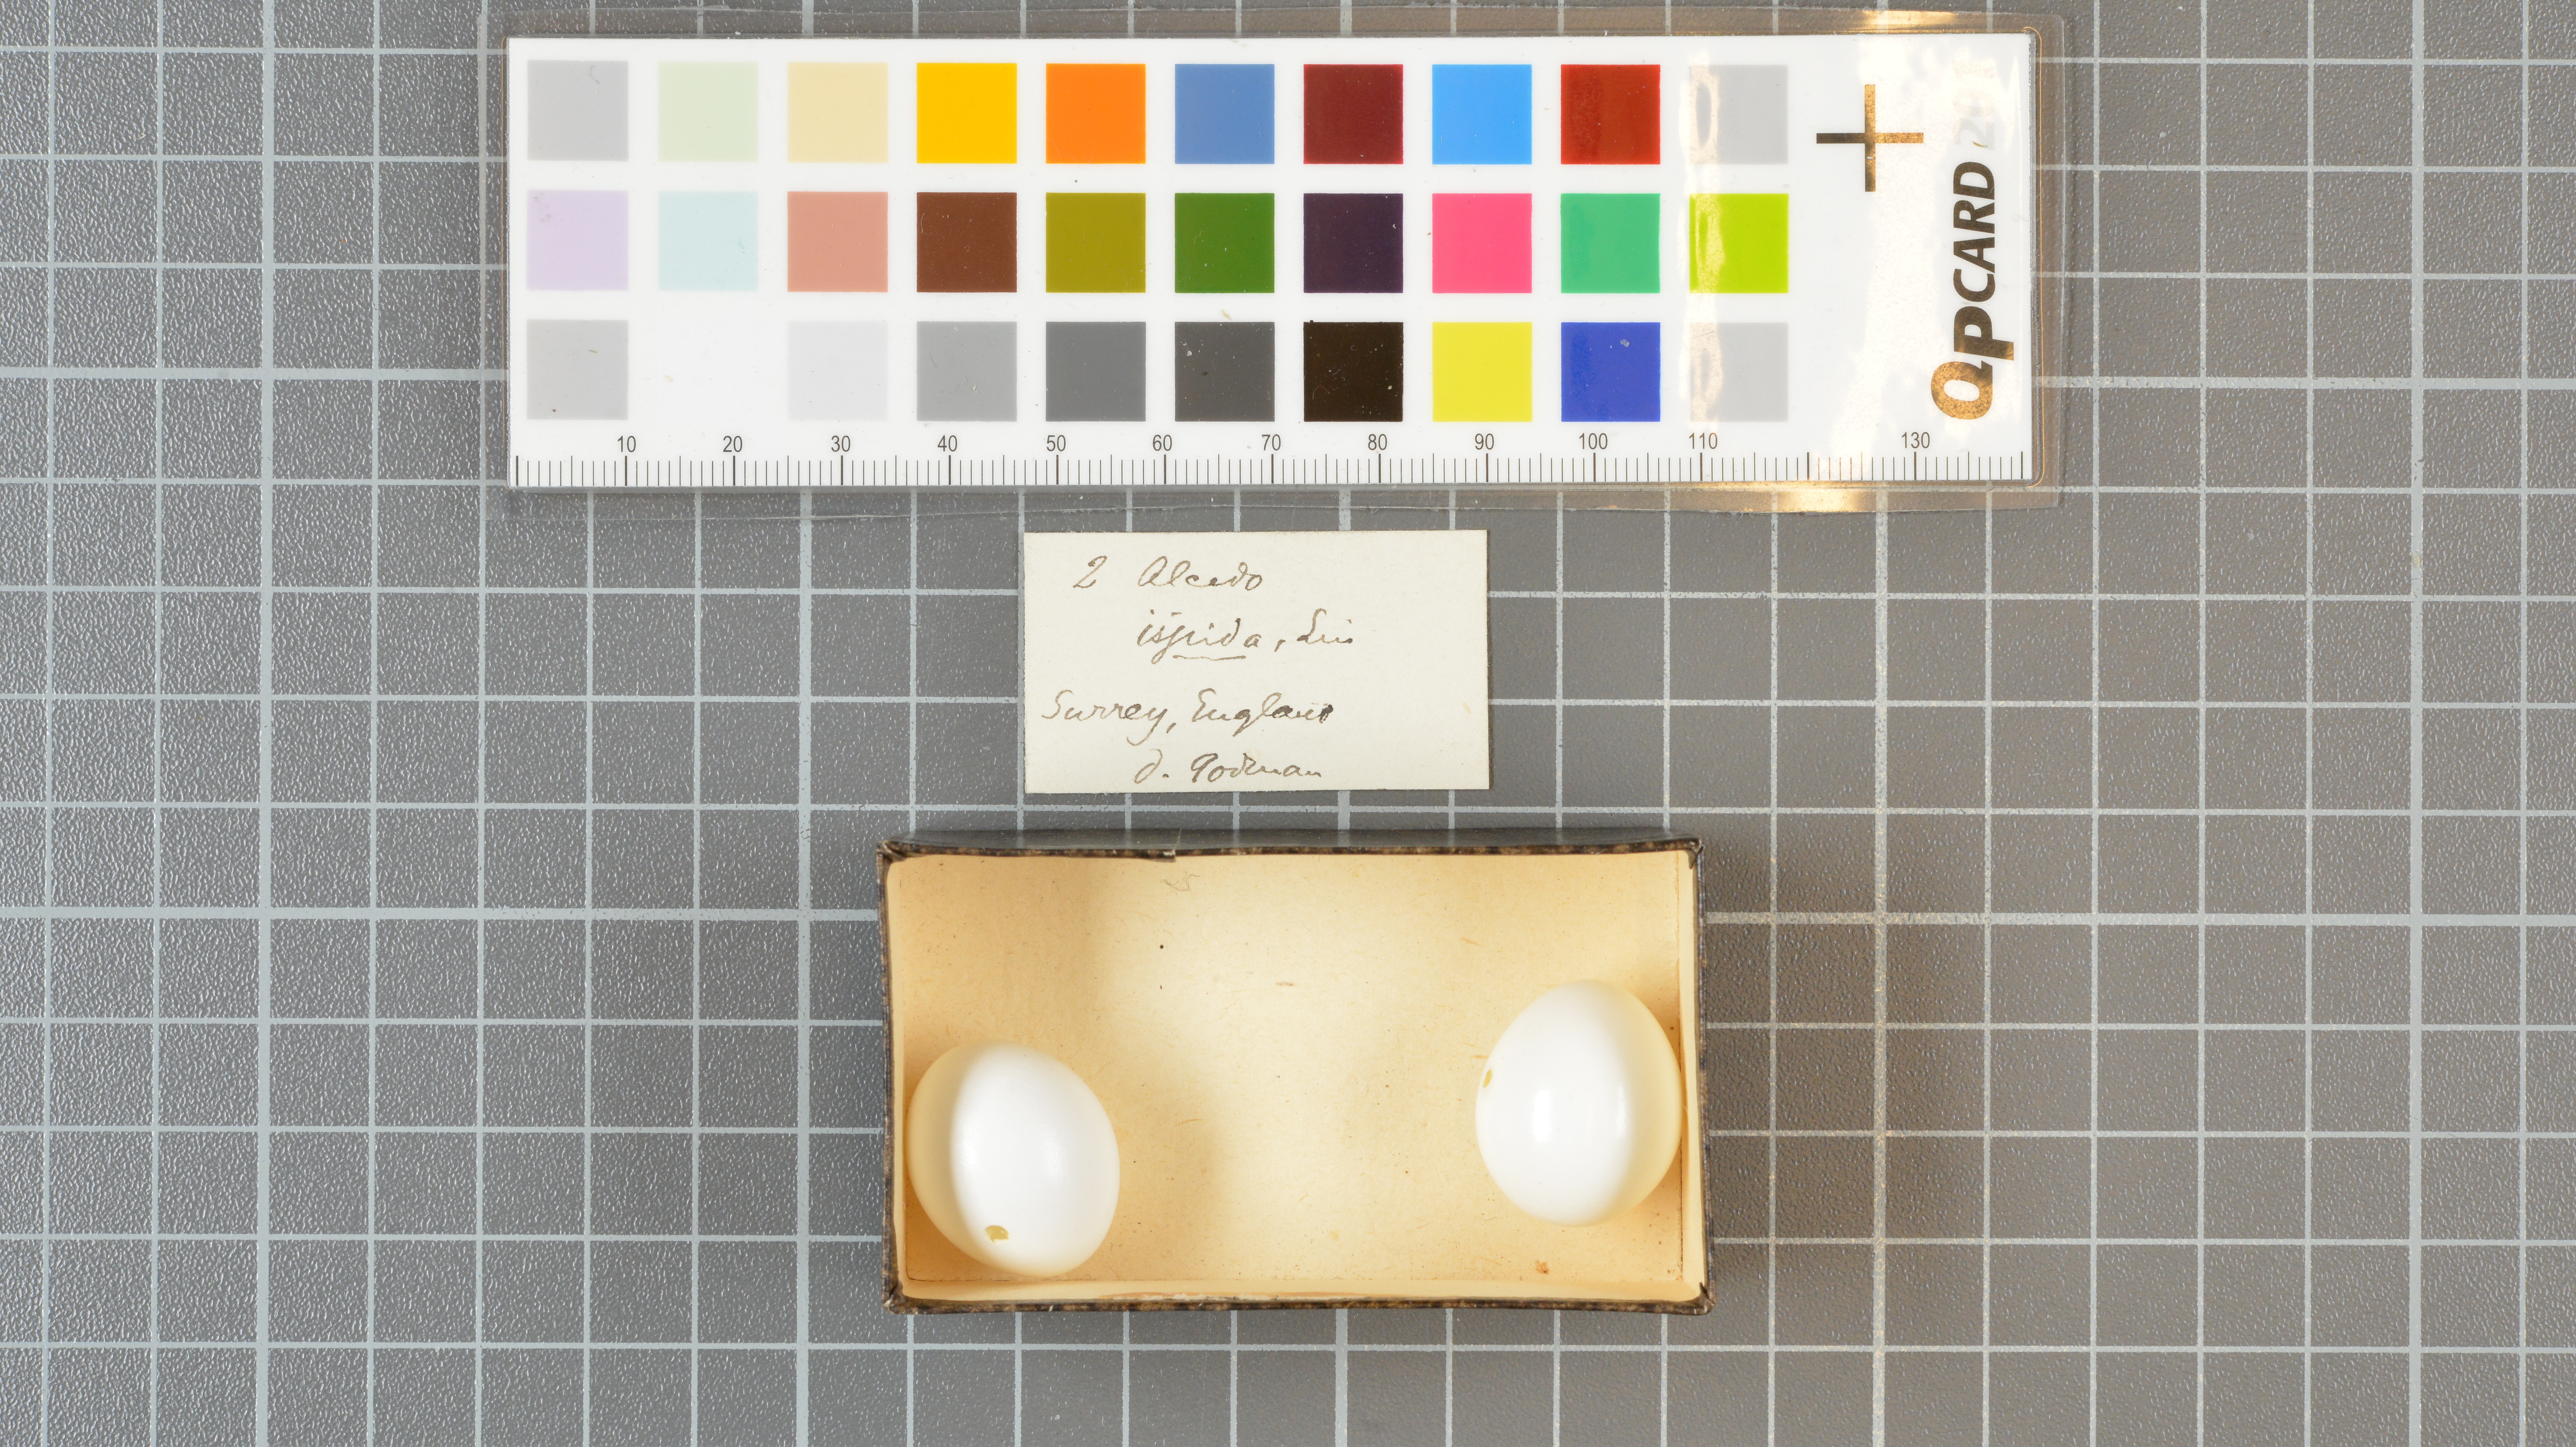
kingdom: Animalia
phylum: Chordata
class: Aves
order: Coraciiformes
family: Alcedinidae
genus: Alcedo
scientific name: Alcedo atthis
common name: Common kingfisher
